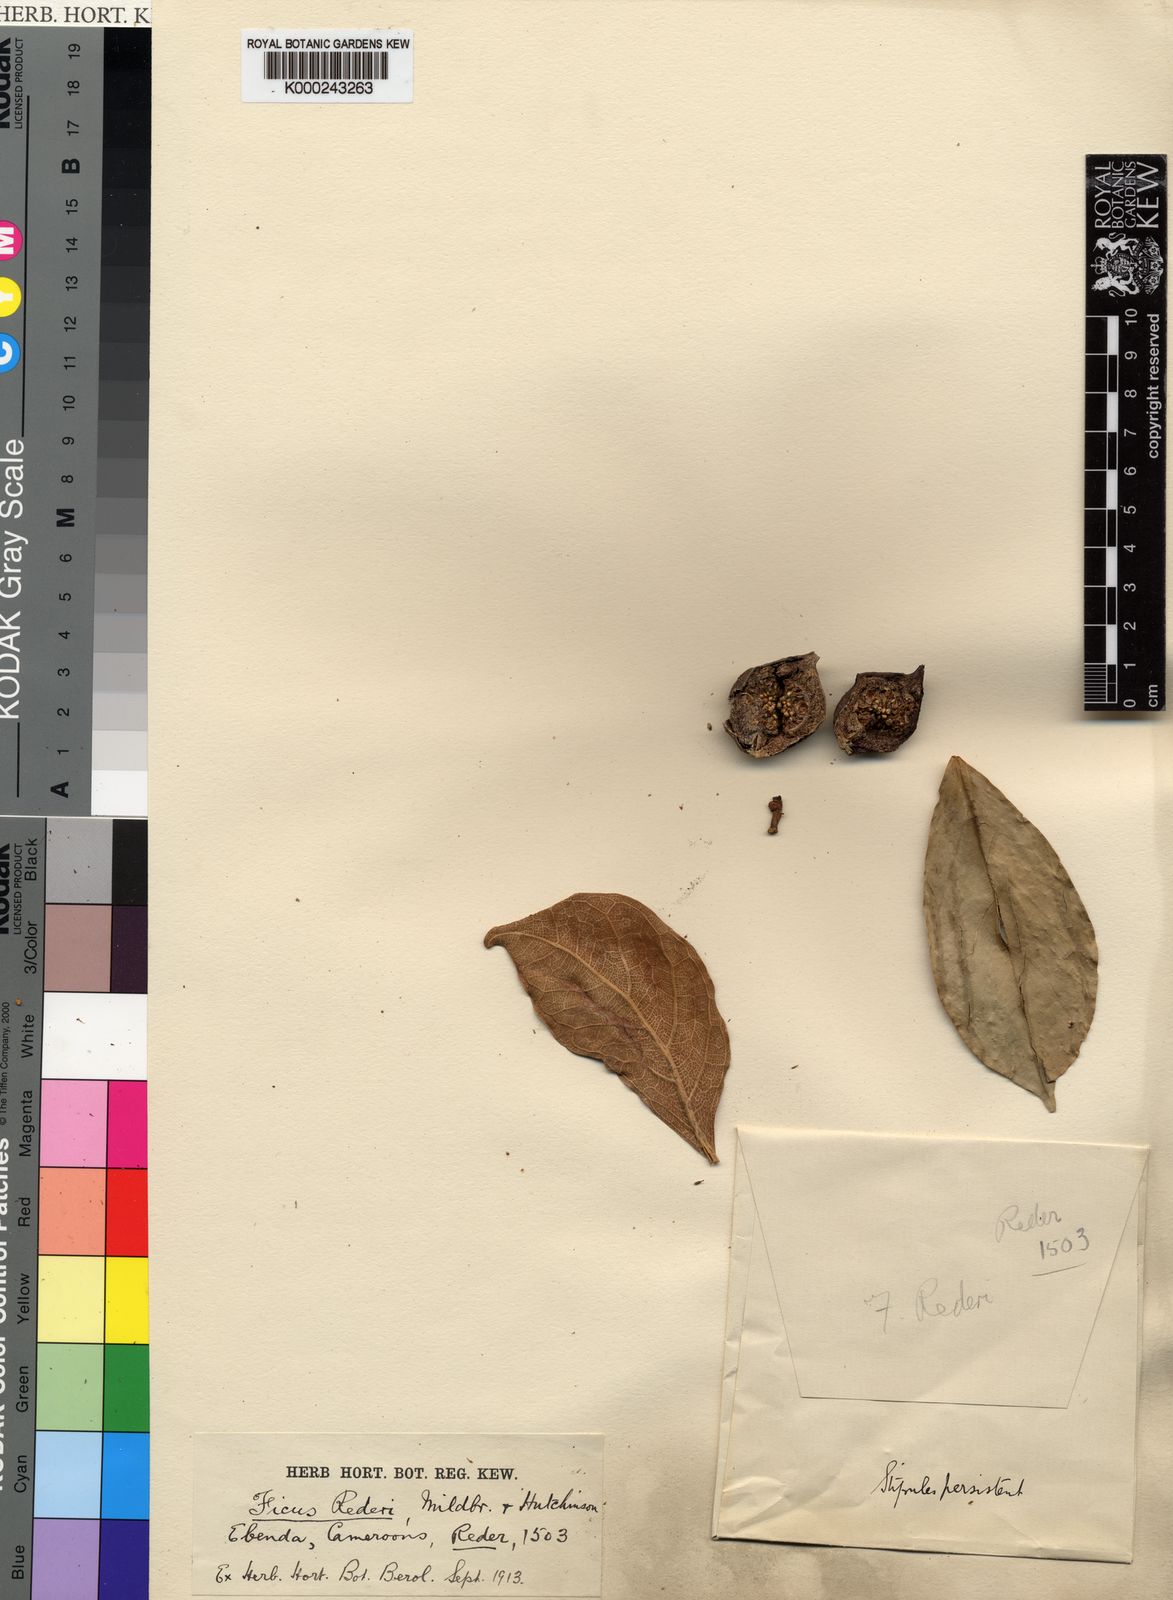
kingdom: Plantae
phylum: Tracheophyta
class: Magnoliopsida
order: Rosales
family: Moraceae
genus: Ficus
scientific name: Ficus cyathistipula
